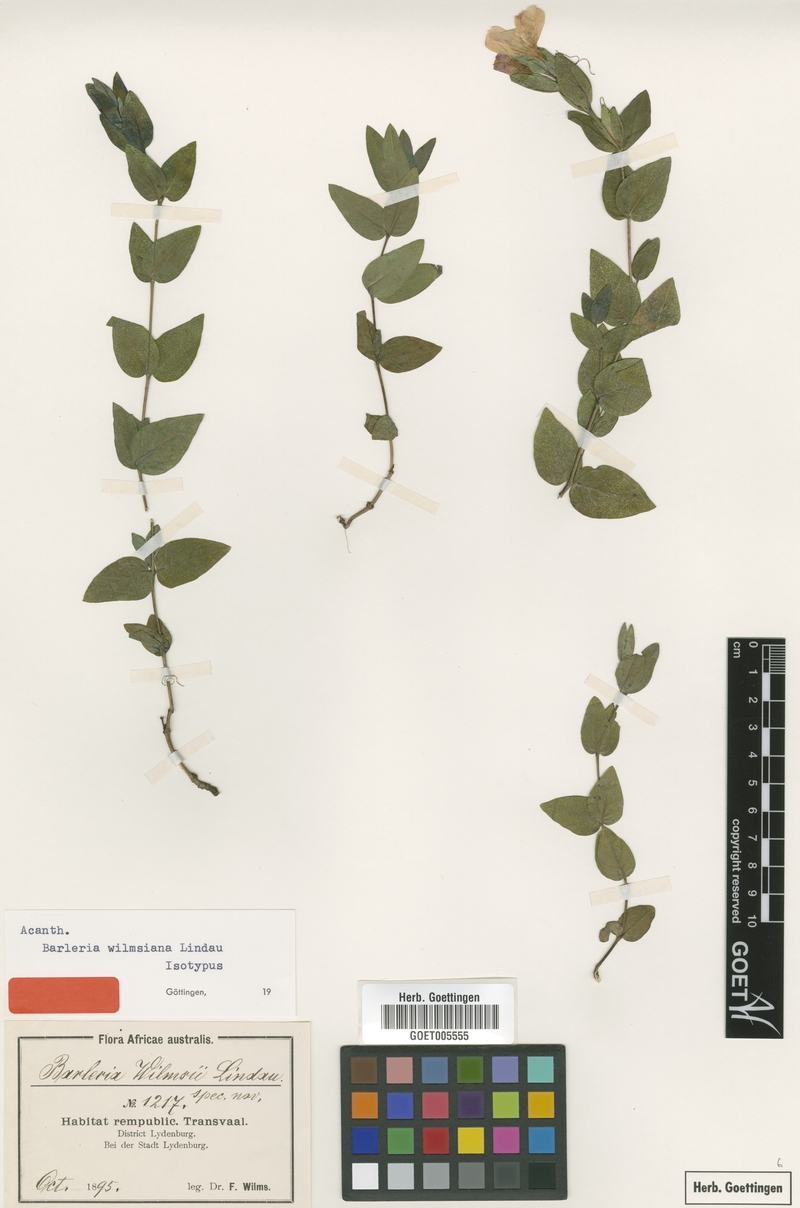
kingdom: Plantae
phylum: Tracheophyta
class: Magnoliopsida
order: Lamiales
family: Acanthaceae
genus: Barleria
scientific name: Barleria wilmsiana
